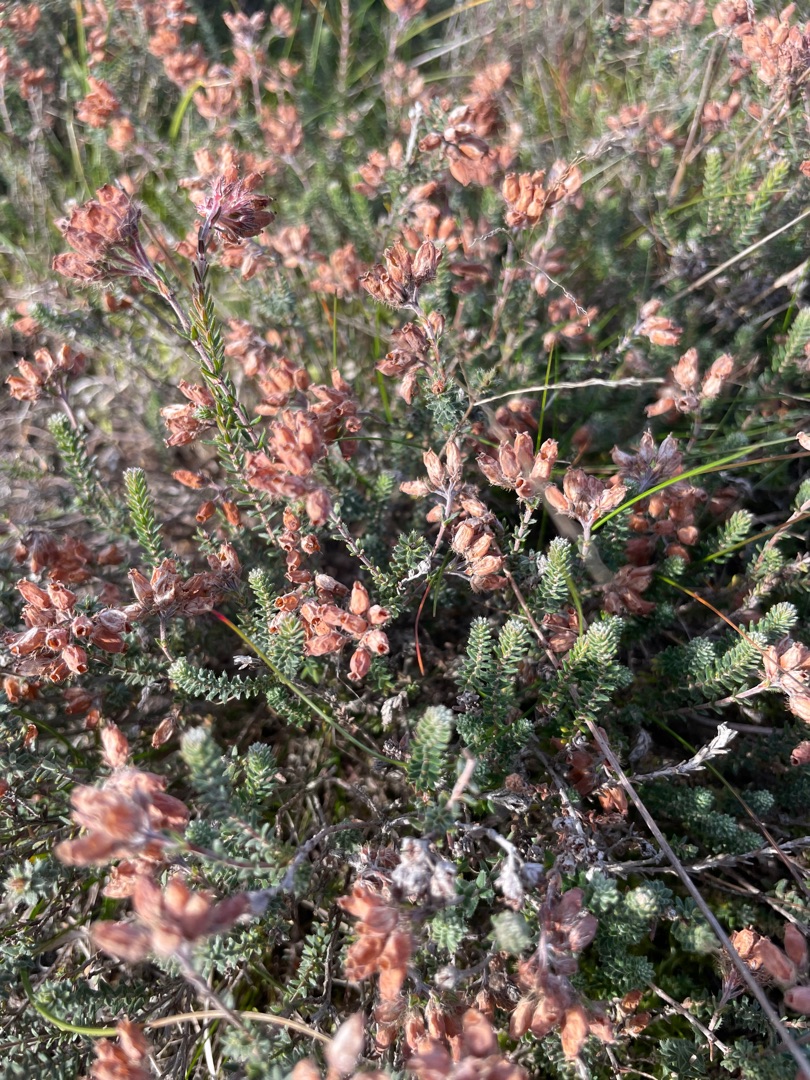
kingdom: Plantae
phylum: Tracheophyta
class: Magnoliopsida
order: Ericales
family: Ericaceae
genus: Erica
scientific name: Erica tetralix
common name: Klokkelyng
